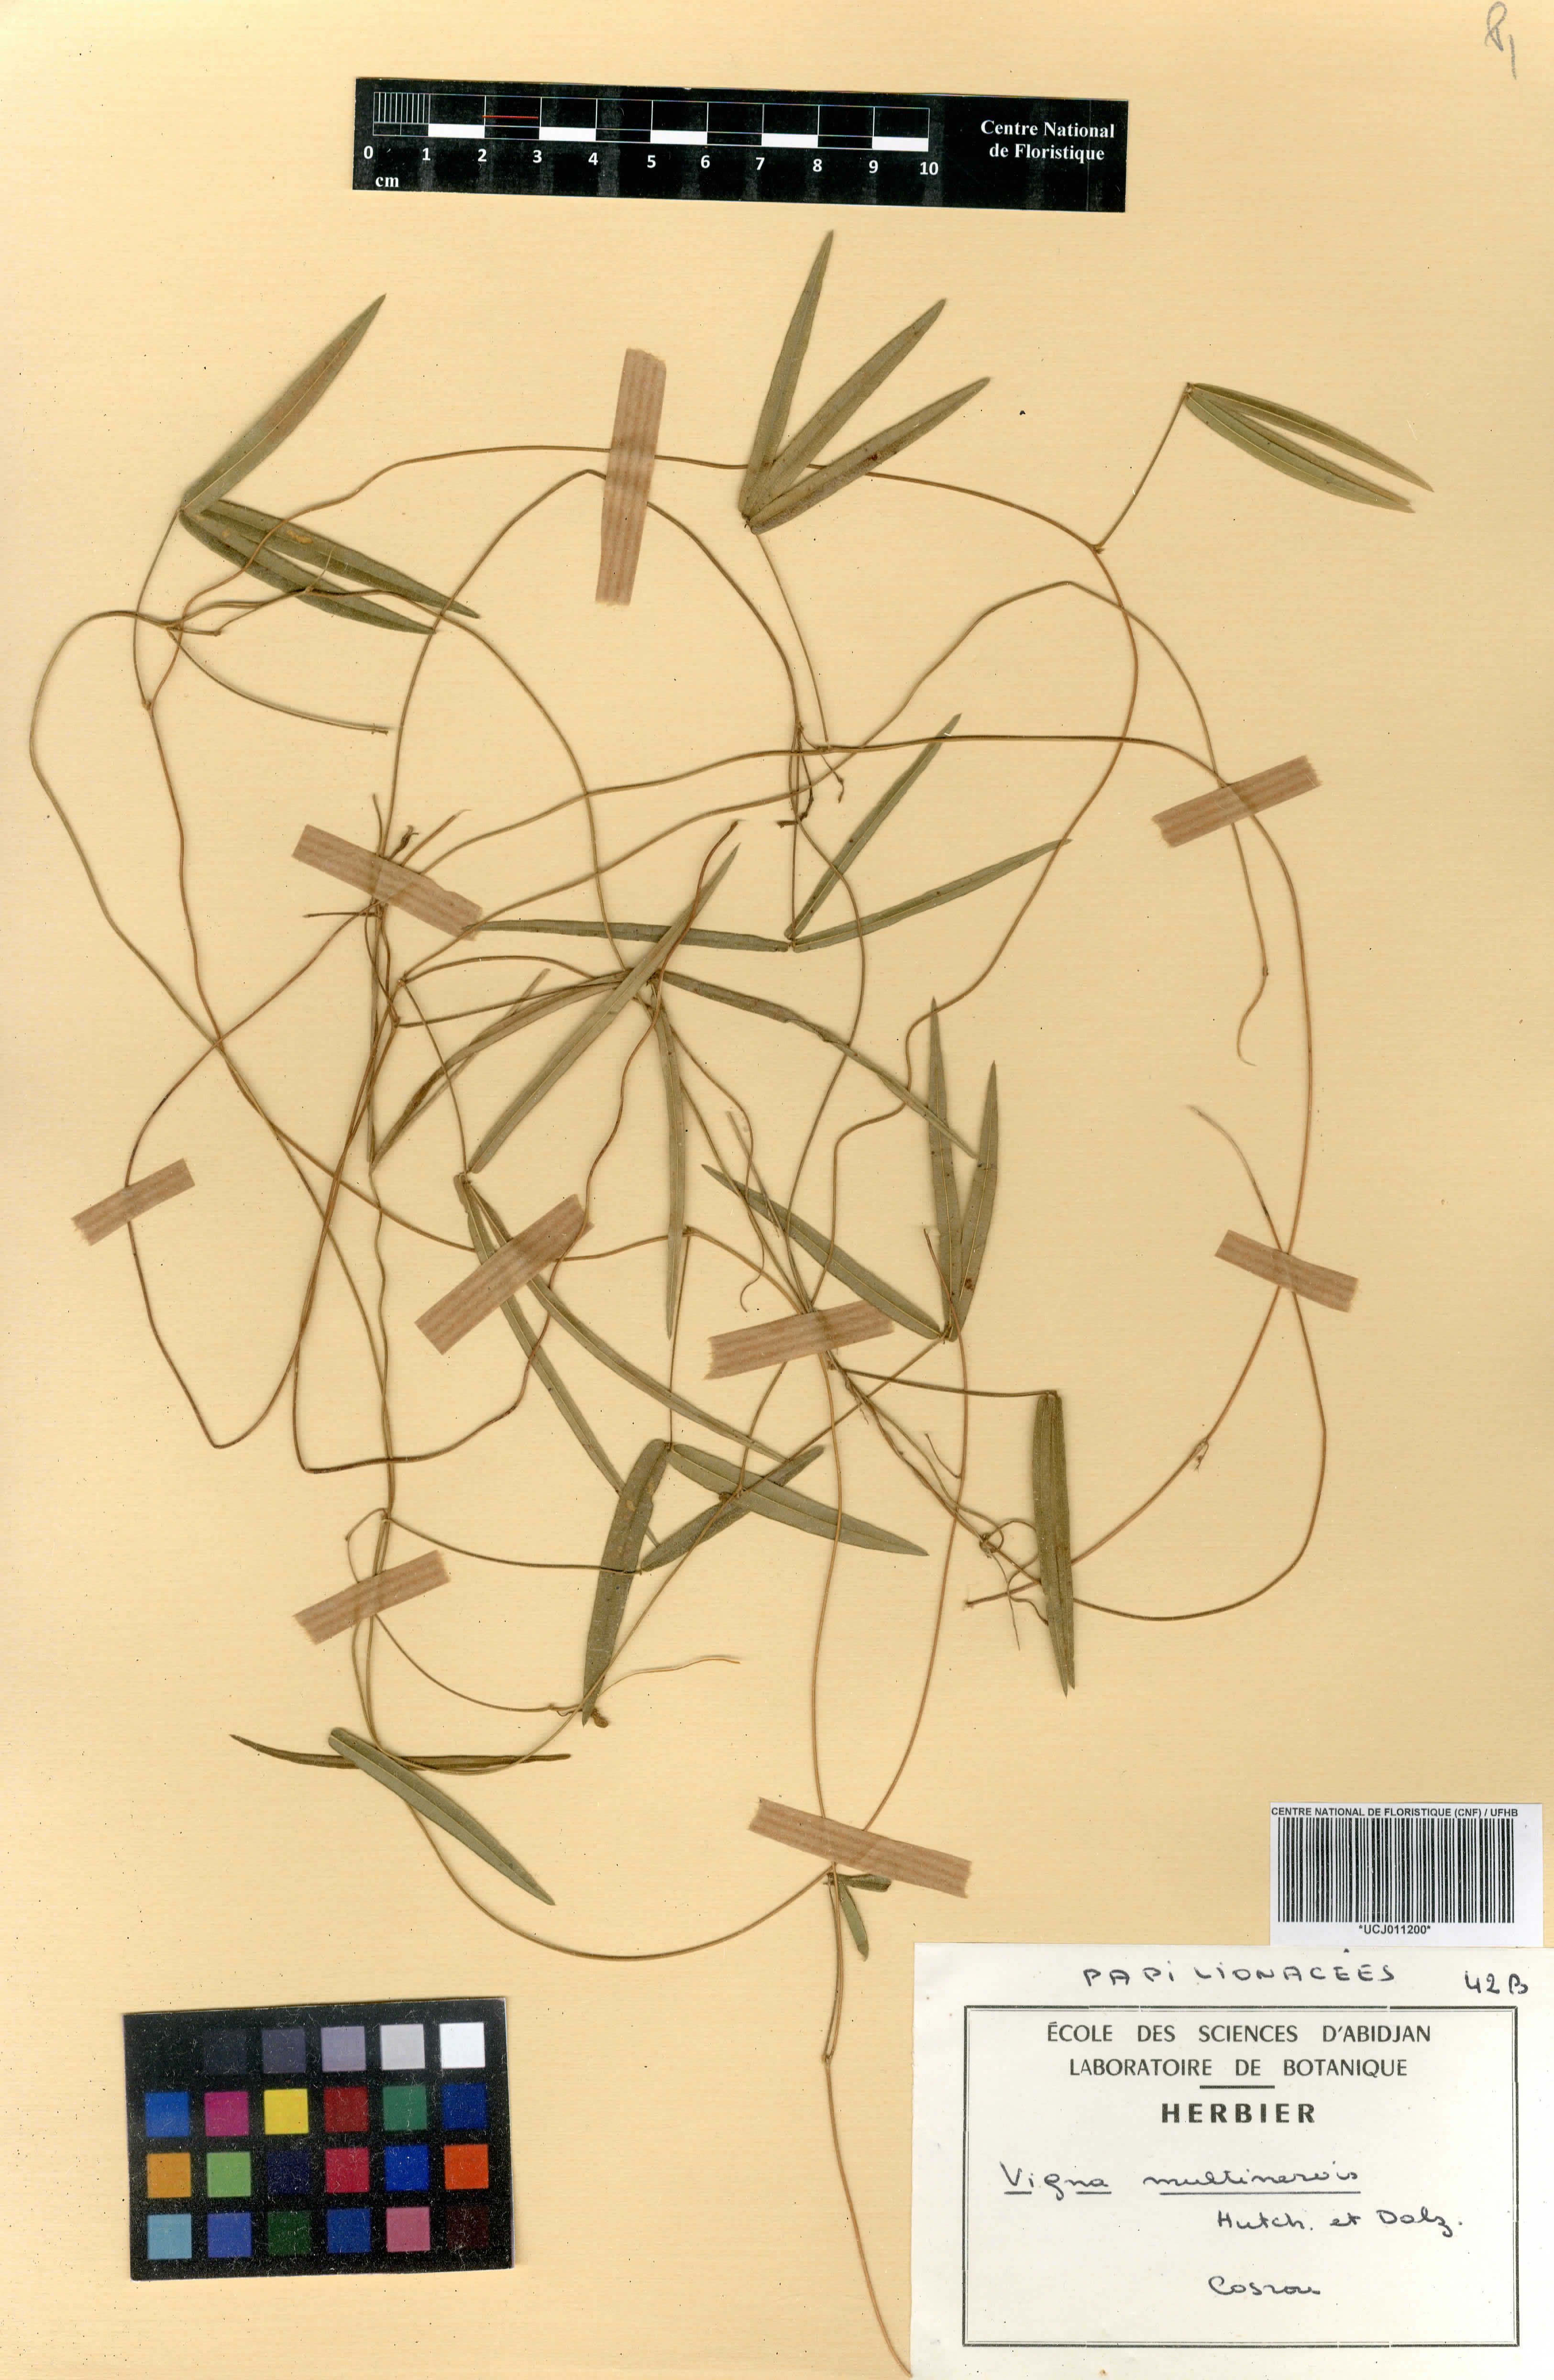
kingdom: Plantae
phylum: Tracheophyta
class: Magnoliopsida
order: Fabales
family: Fabaceae
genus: Vigna
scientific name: Vigna multinervis
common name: Fula-pulaar
